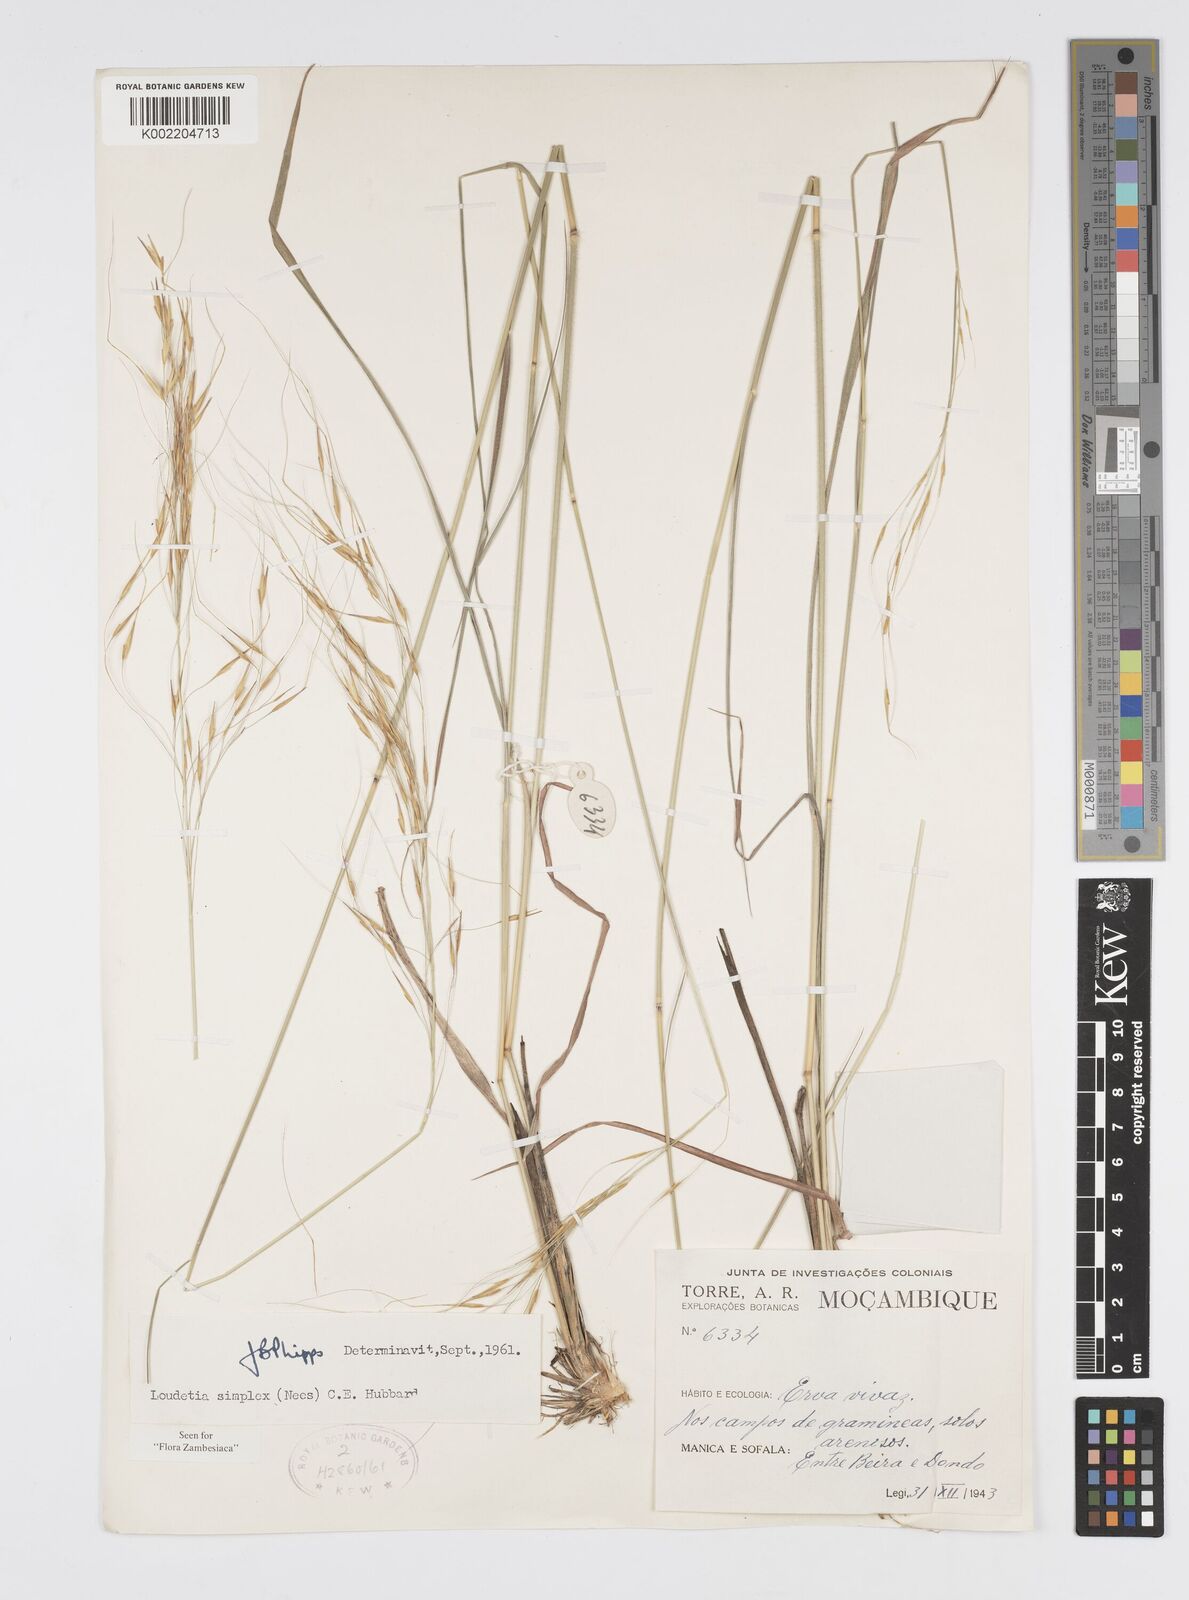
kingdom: Plantae
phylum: Tracheophyta
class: Liliopsida
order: Poales
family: Poaceae
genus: Loudetia
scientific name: Loudetia simplex
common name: Common russet grass
